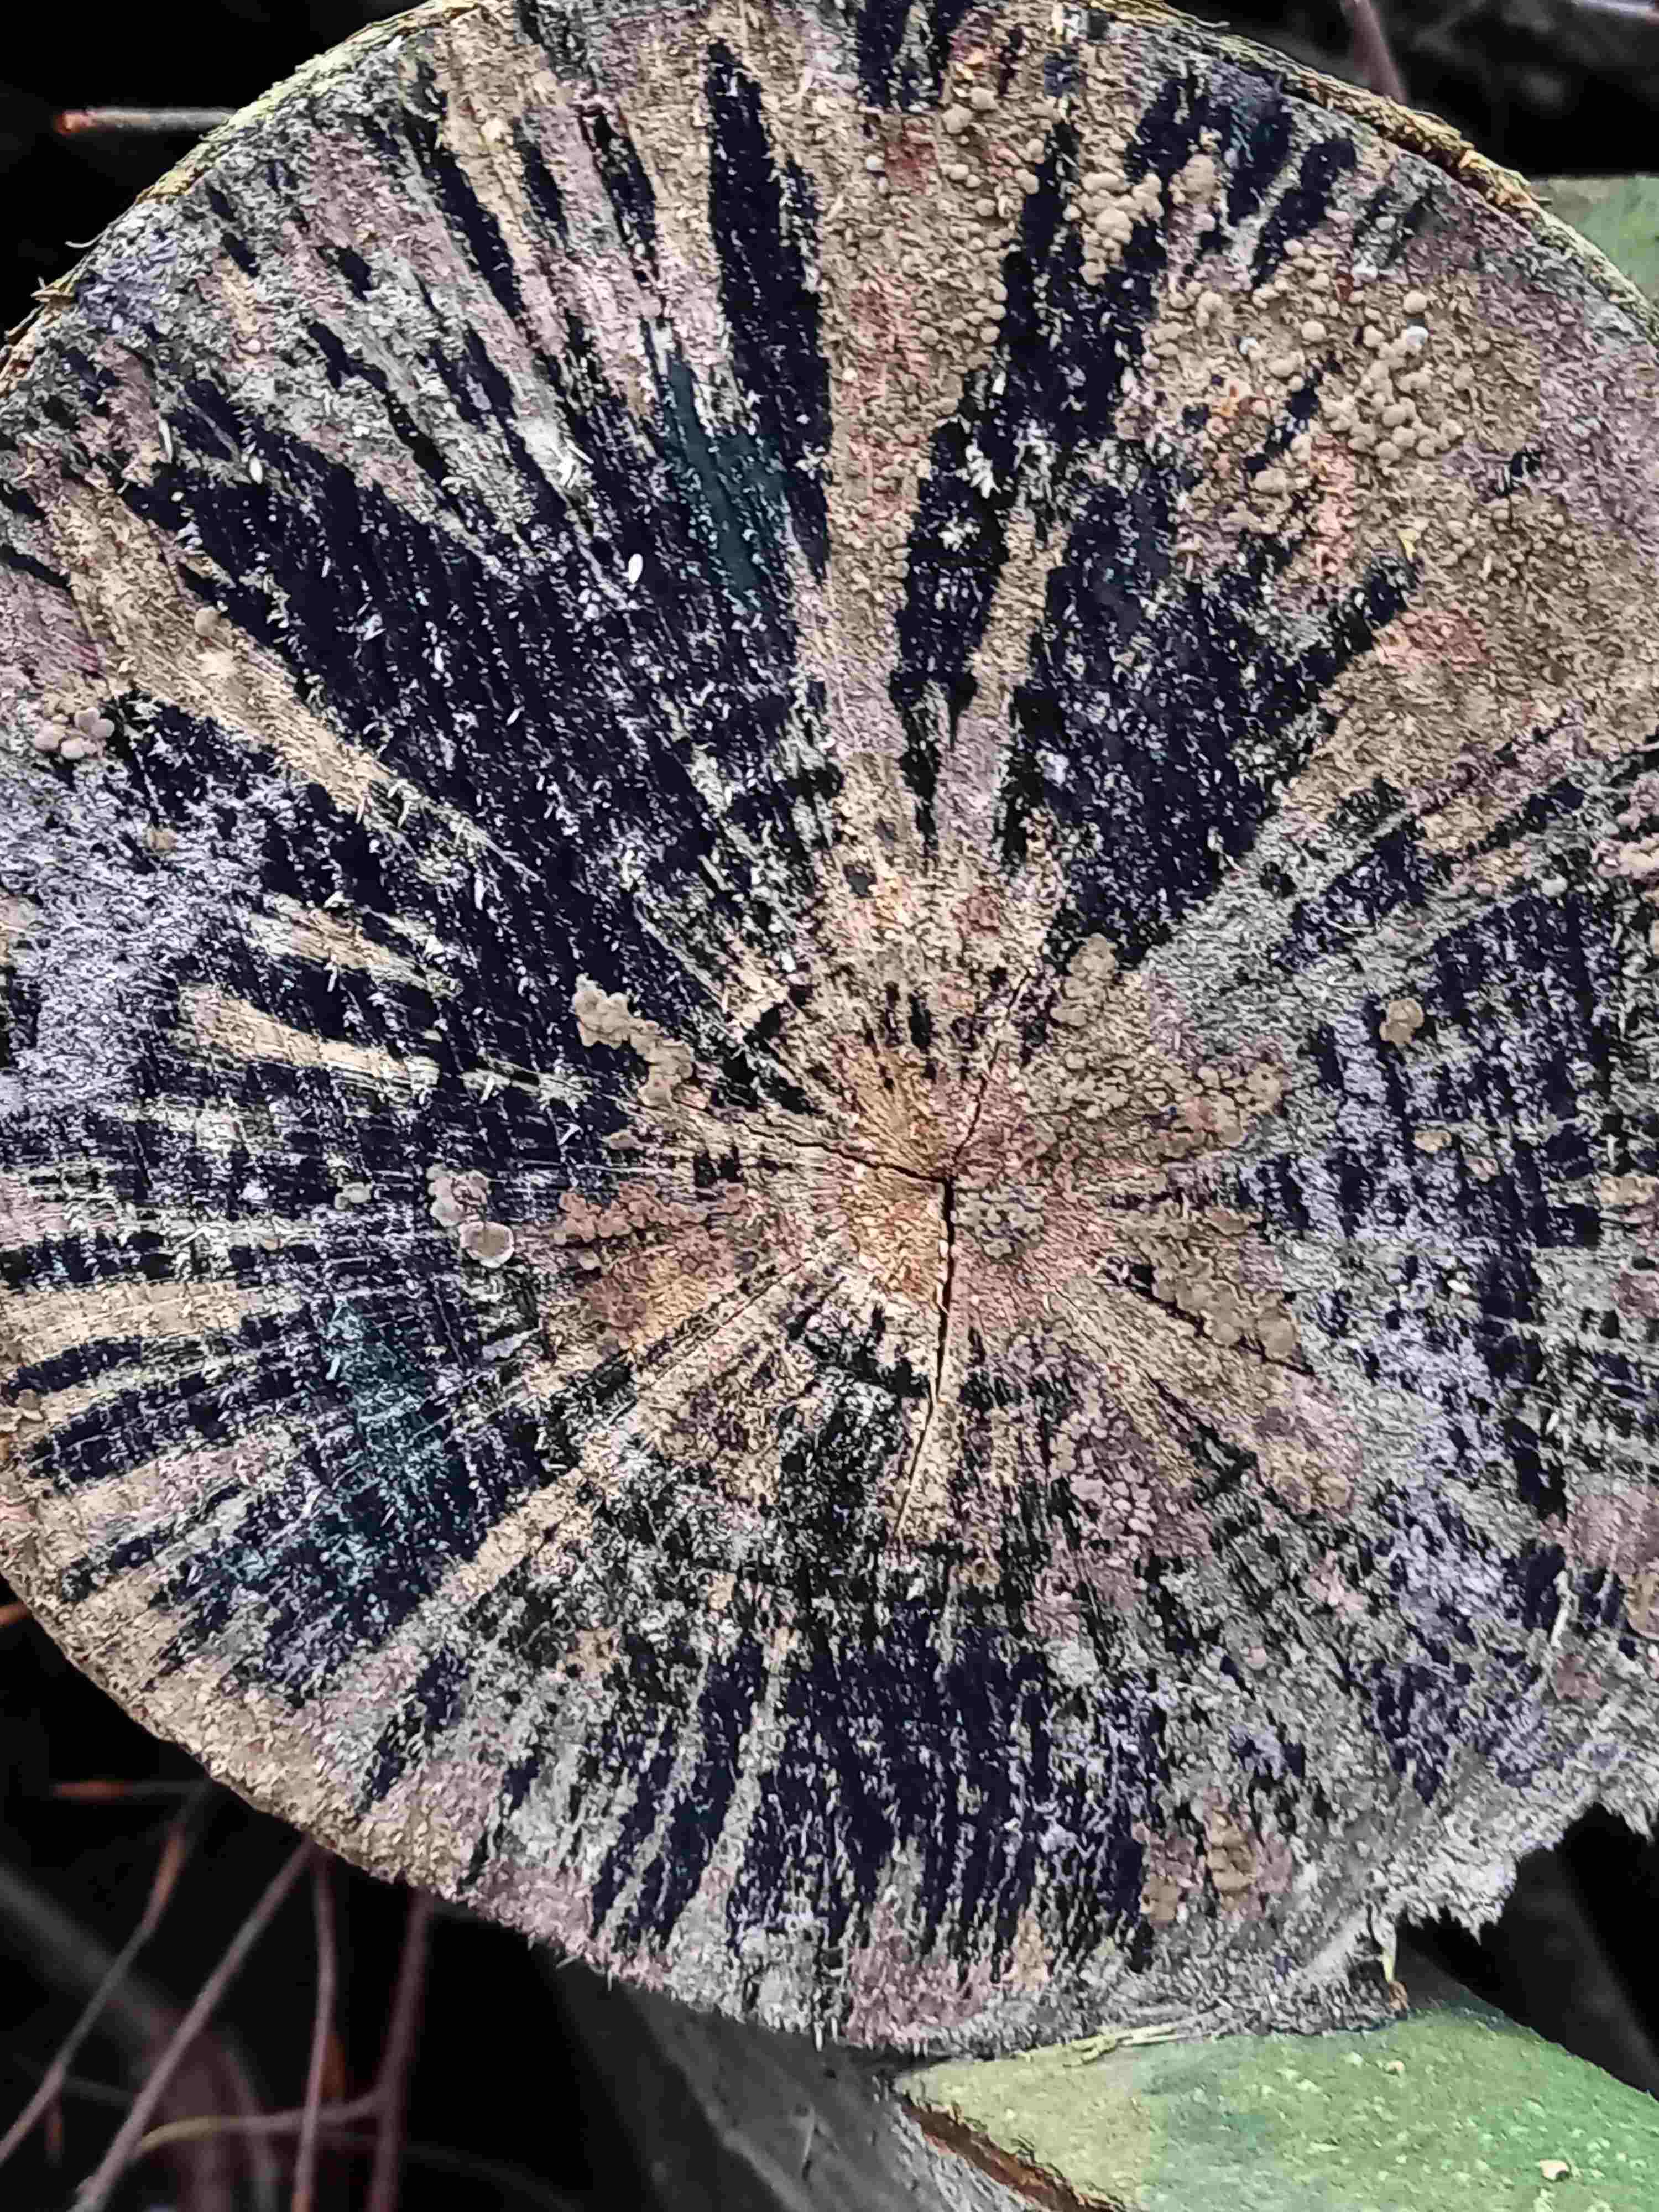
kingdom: Fungi
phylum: Ascomycota
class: Leotiomycetes
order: Helotiales
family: Helotiaceae
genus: Bispora
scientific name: Bispora pallescens
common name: måtte-snitskive
